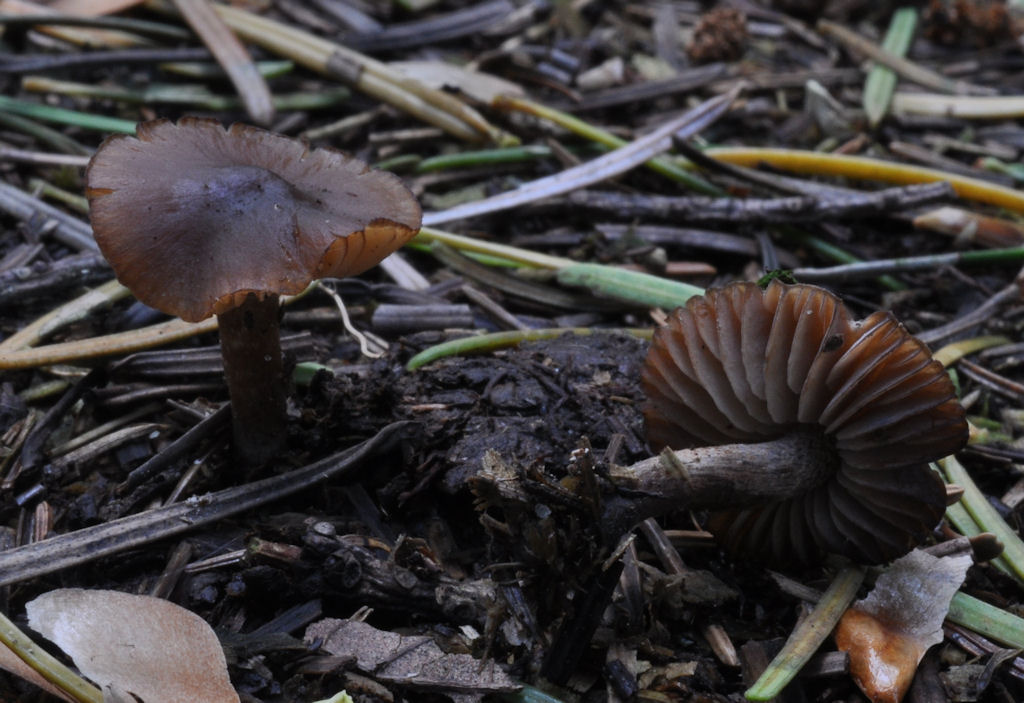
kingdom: Fungi
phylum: Basidiomycota
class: Agaricomycetes
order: Agaricales
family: Lyophyllaceae
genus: Sagaranella
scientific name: Sagaranella tylicolor
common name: kvælstof-gråblad
